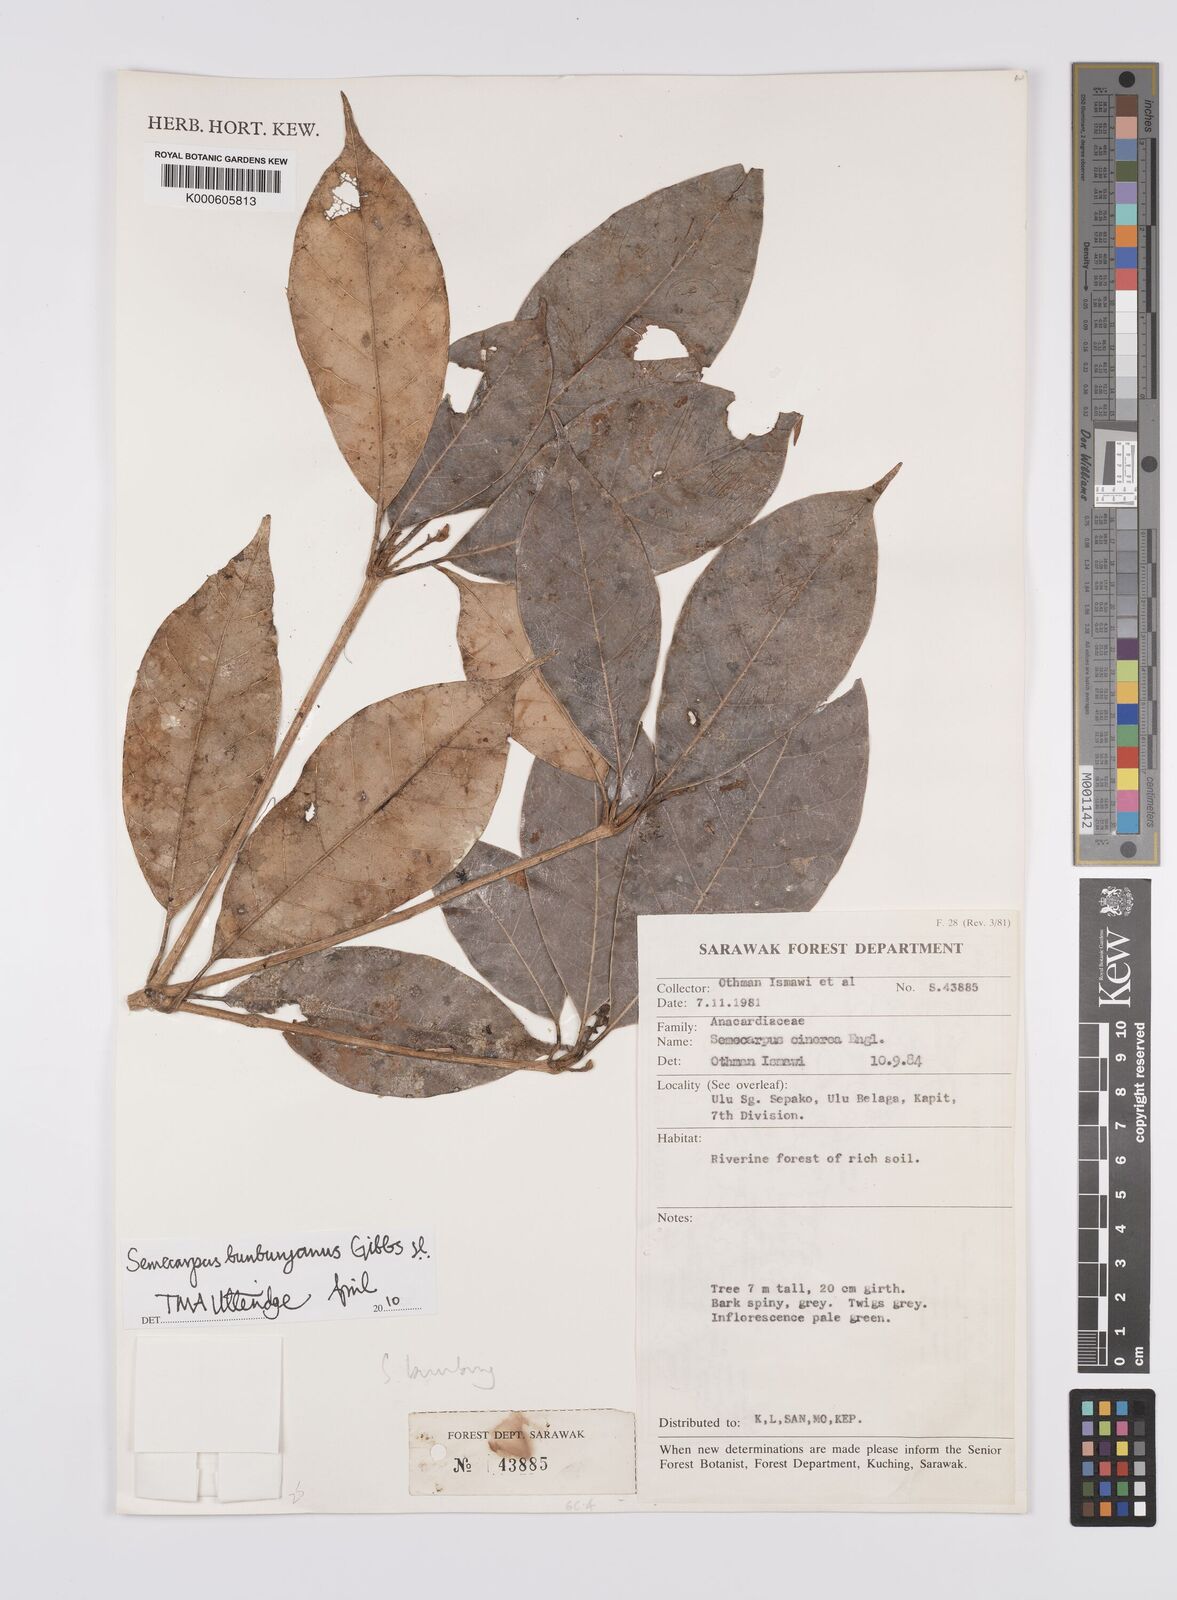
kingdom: Plantae
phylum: Tracheophyta
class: Magnoliopsida
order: Sapindales
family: Anacardiaceae
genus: Semecarpus
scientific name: Semecarpus bunburyanus
